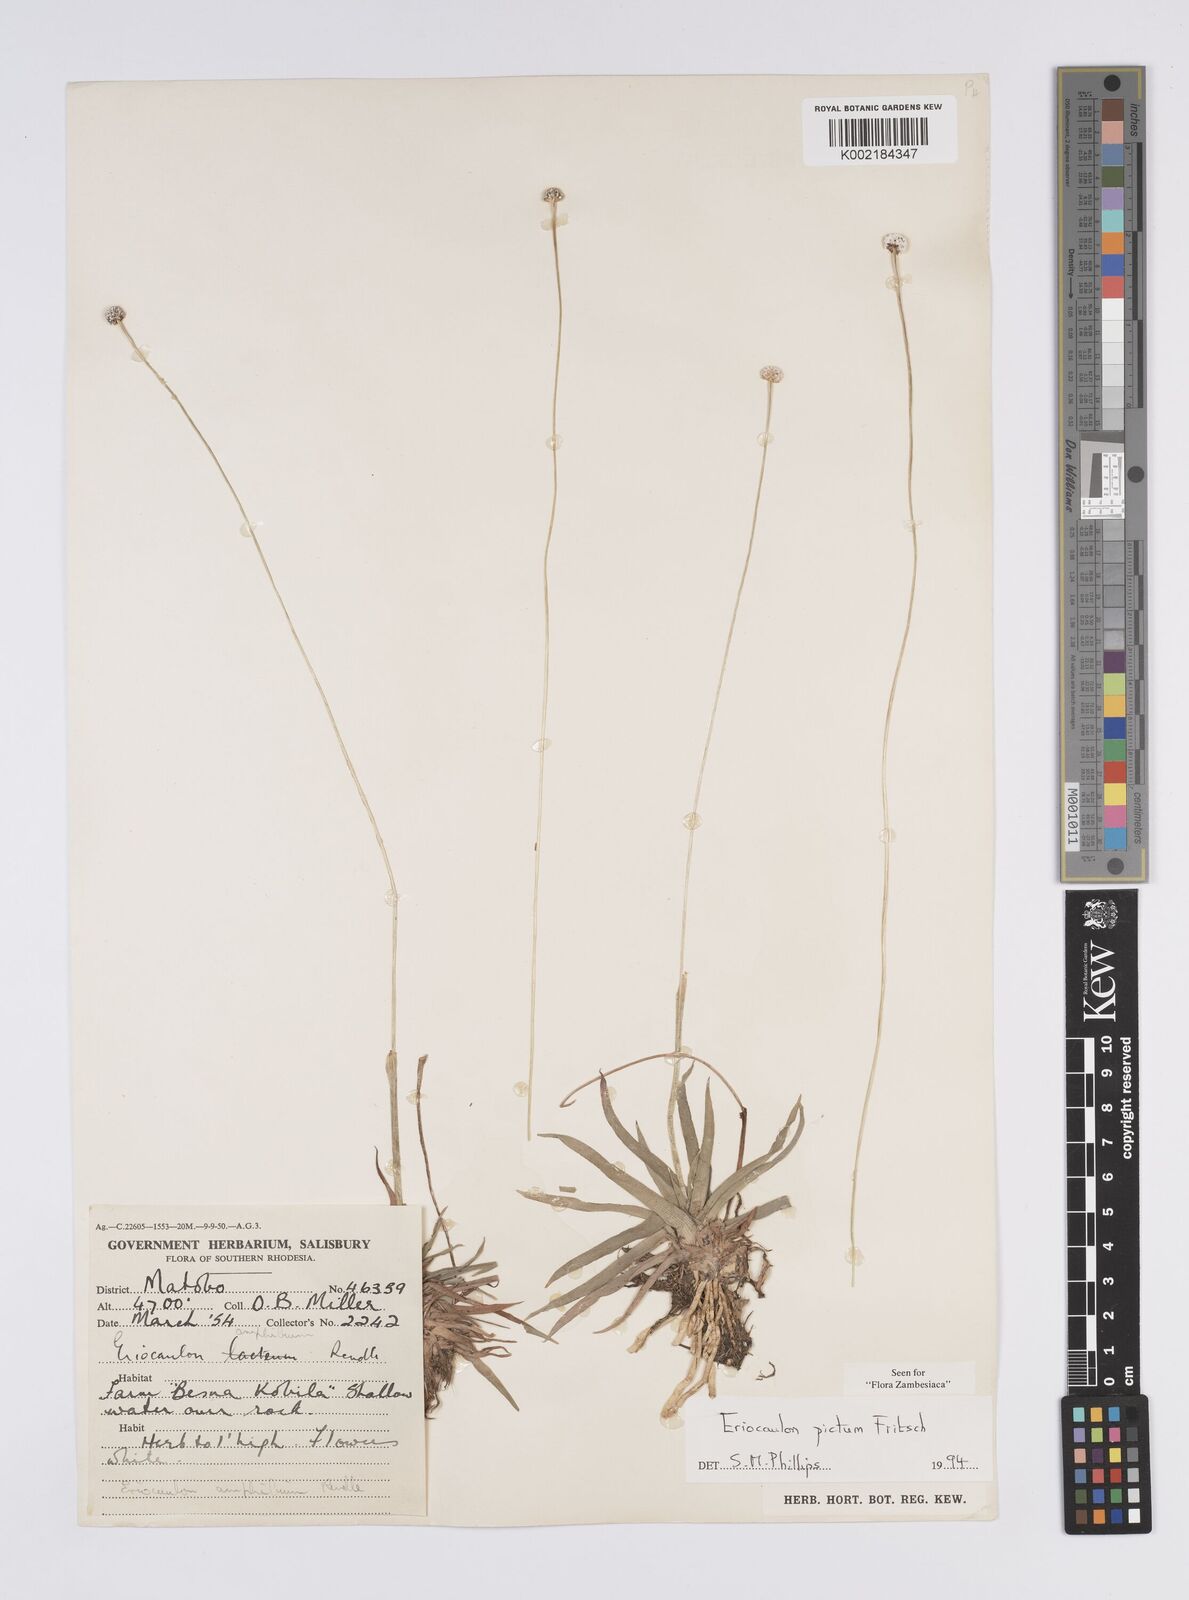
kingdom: Plantae
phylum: Tracheophyta
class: Liliopsida
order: Poales
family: Eriocaulaceae
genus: Eriocaulon
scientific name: Eriocaulon pictum
